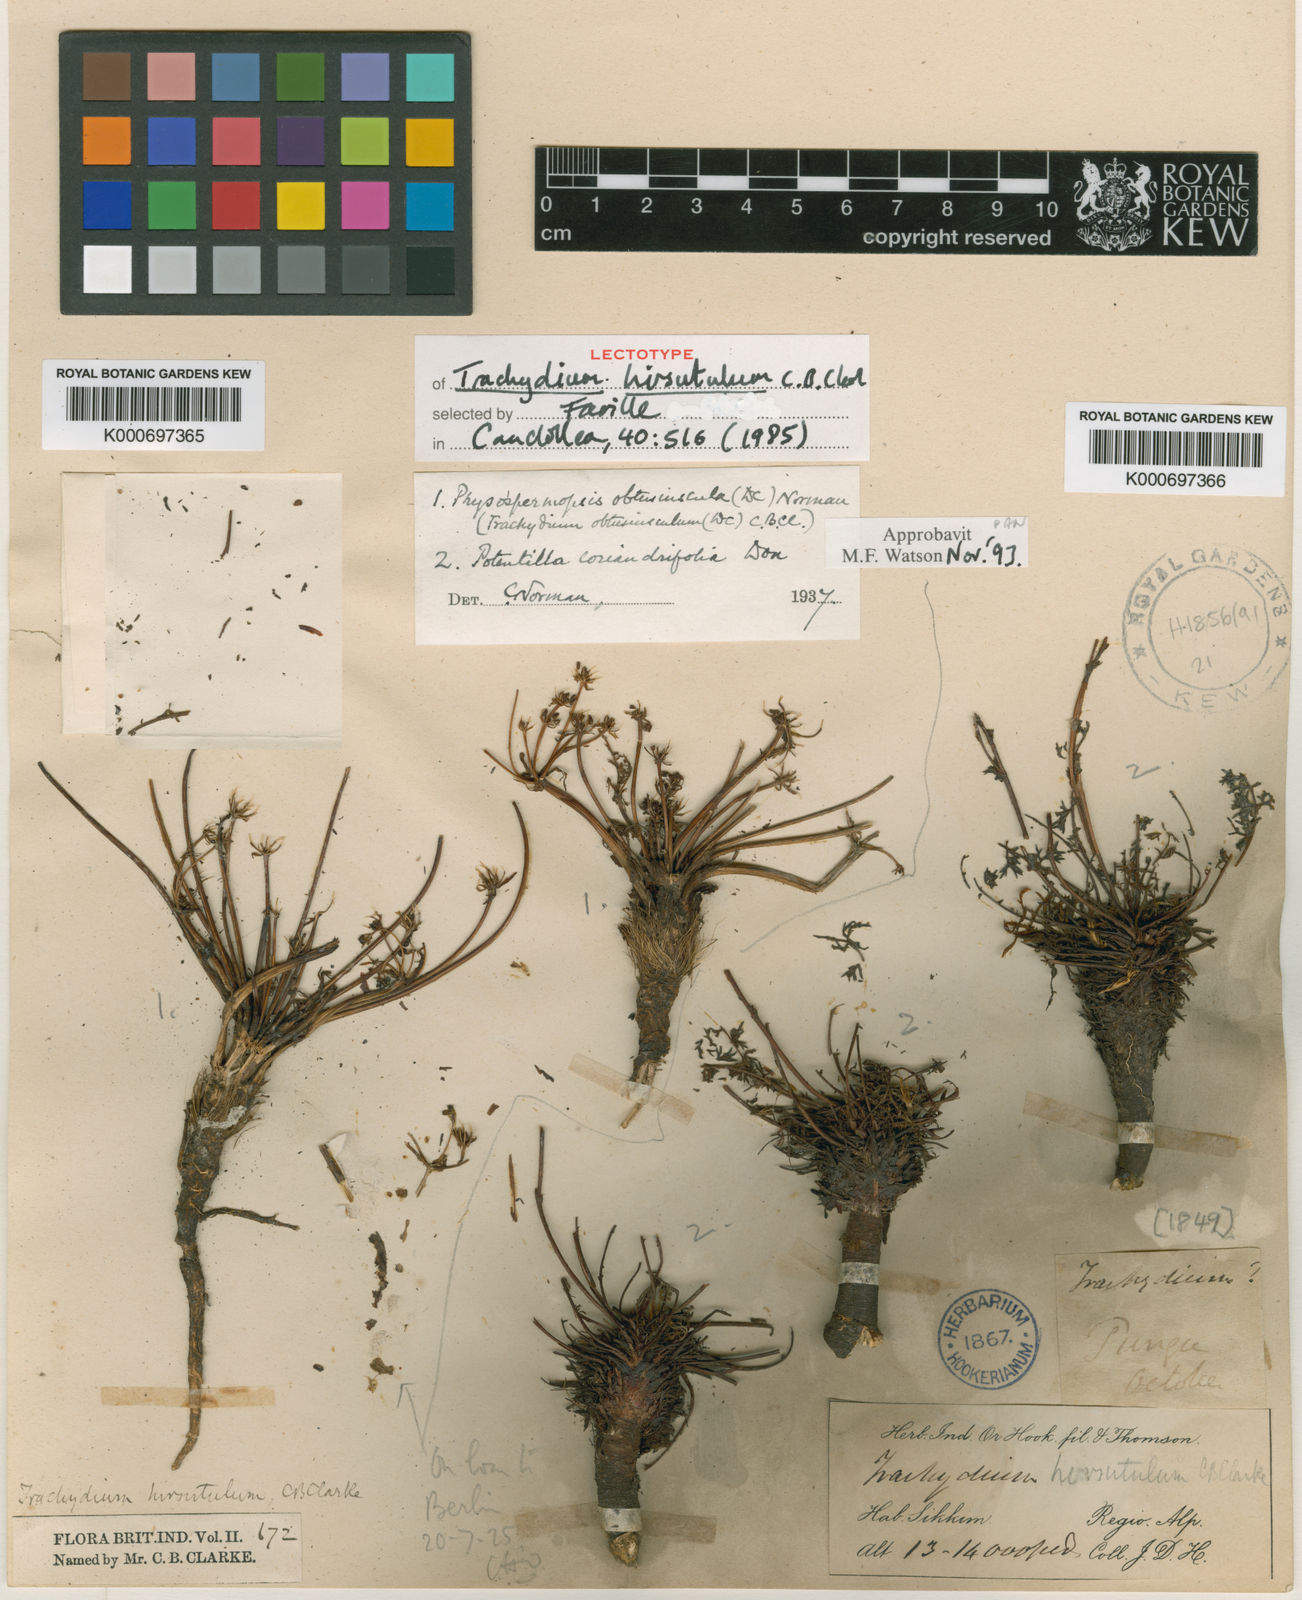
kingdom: Plantae
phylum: Tracheophyta
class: Magnoliopsida
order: Apiales
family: Apiaceae
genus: Schulzia
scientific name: Schulzia dissecta
